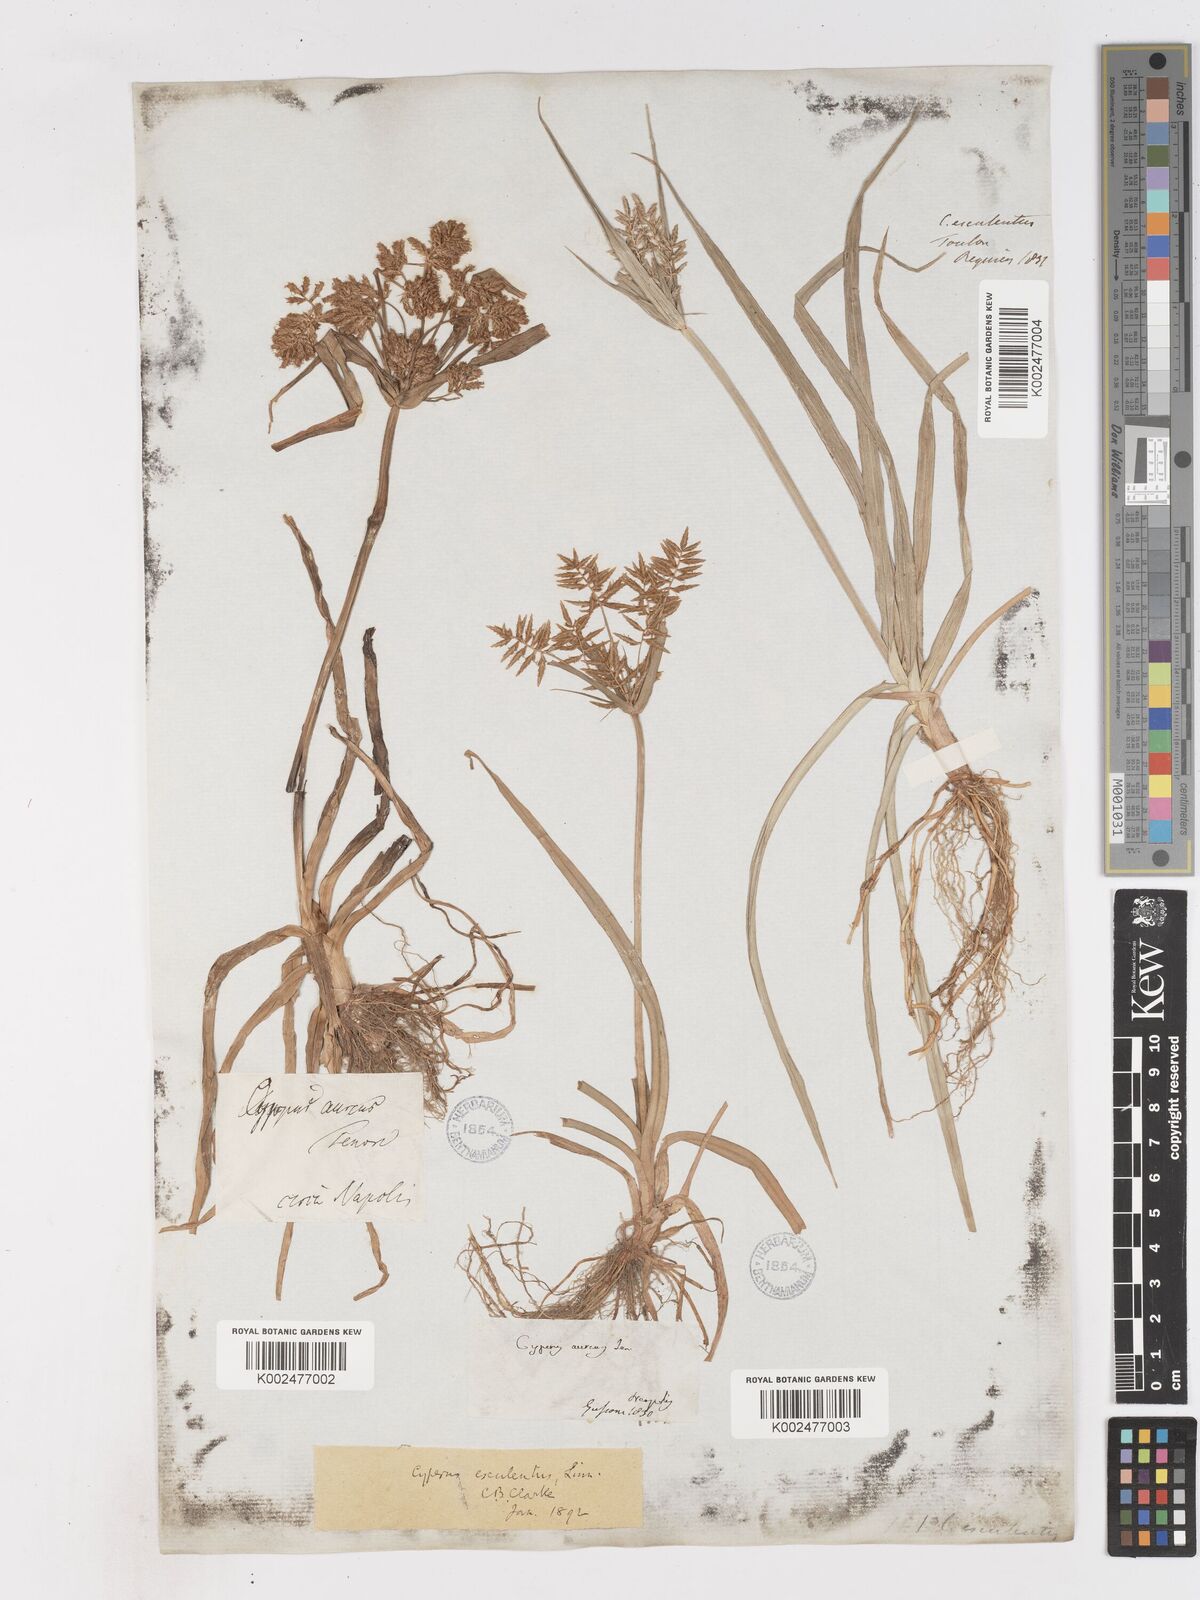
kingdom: Plantae
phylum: Tracheophyta
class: Liliopsida
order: Poales
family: Cyperaceae
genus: Cyperus
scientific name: Cyperus esculentus
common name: Yellow nutsedge
